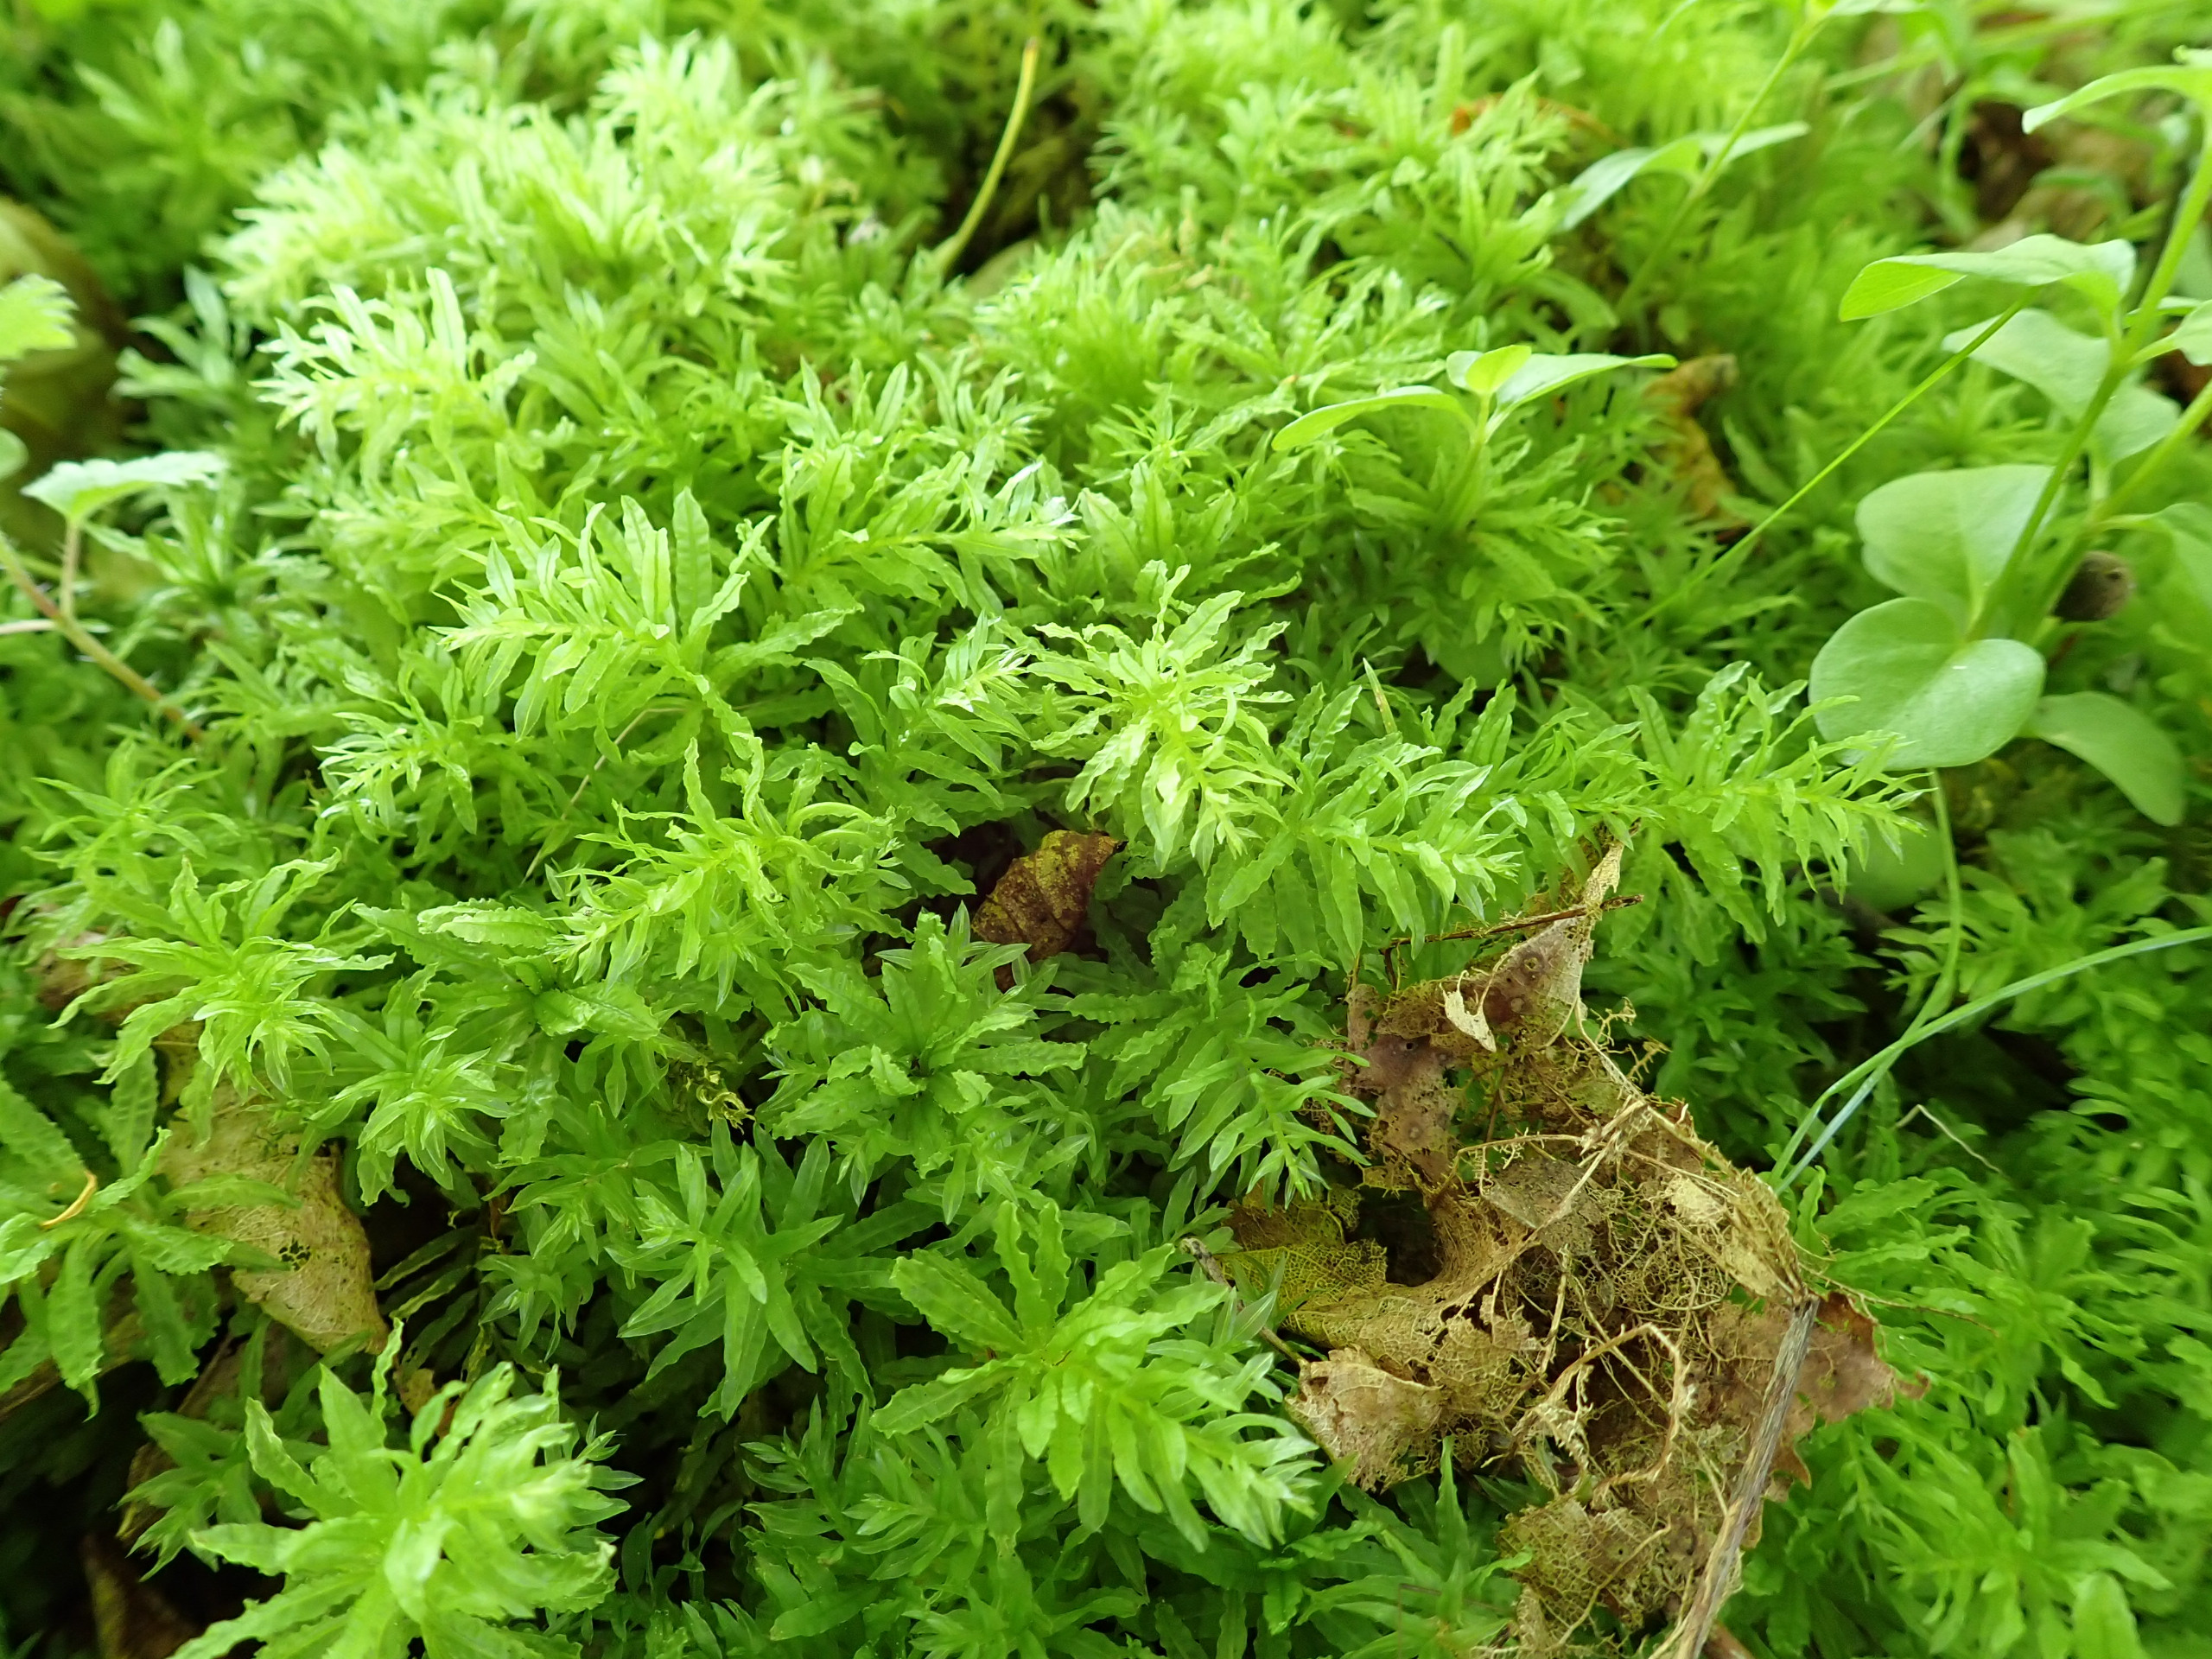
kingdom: Plantae
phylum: Bryophyta
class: Bryopsida
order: Bryales
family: Mniaceae
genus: Plagiomnium
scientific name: Plagiomnium undulatum
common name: Bølget krybstjerne
